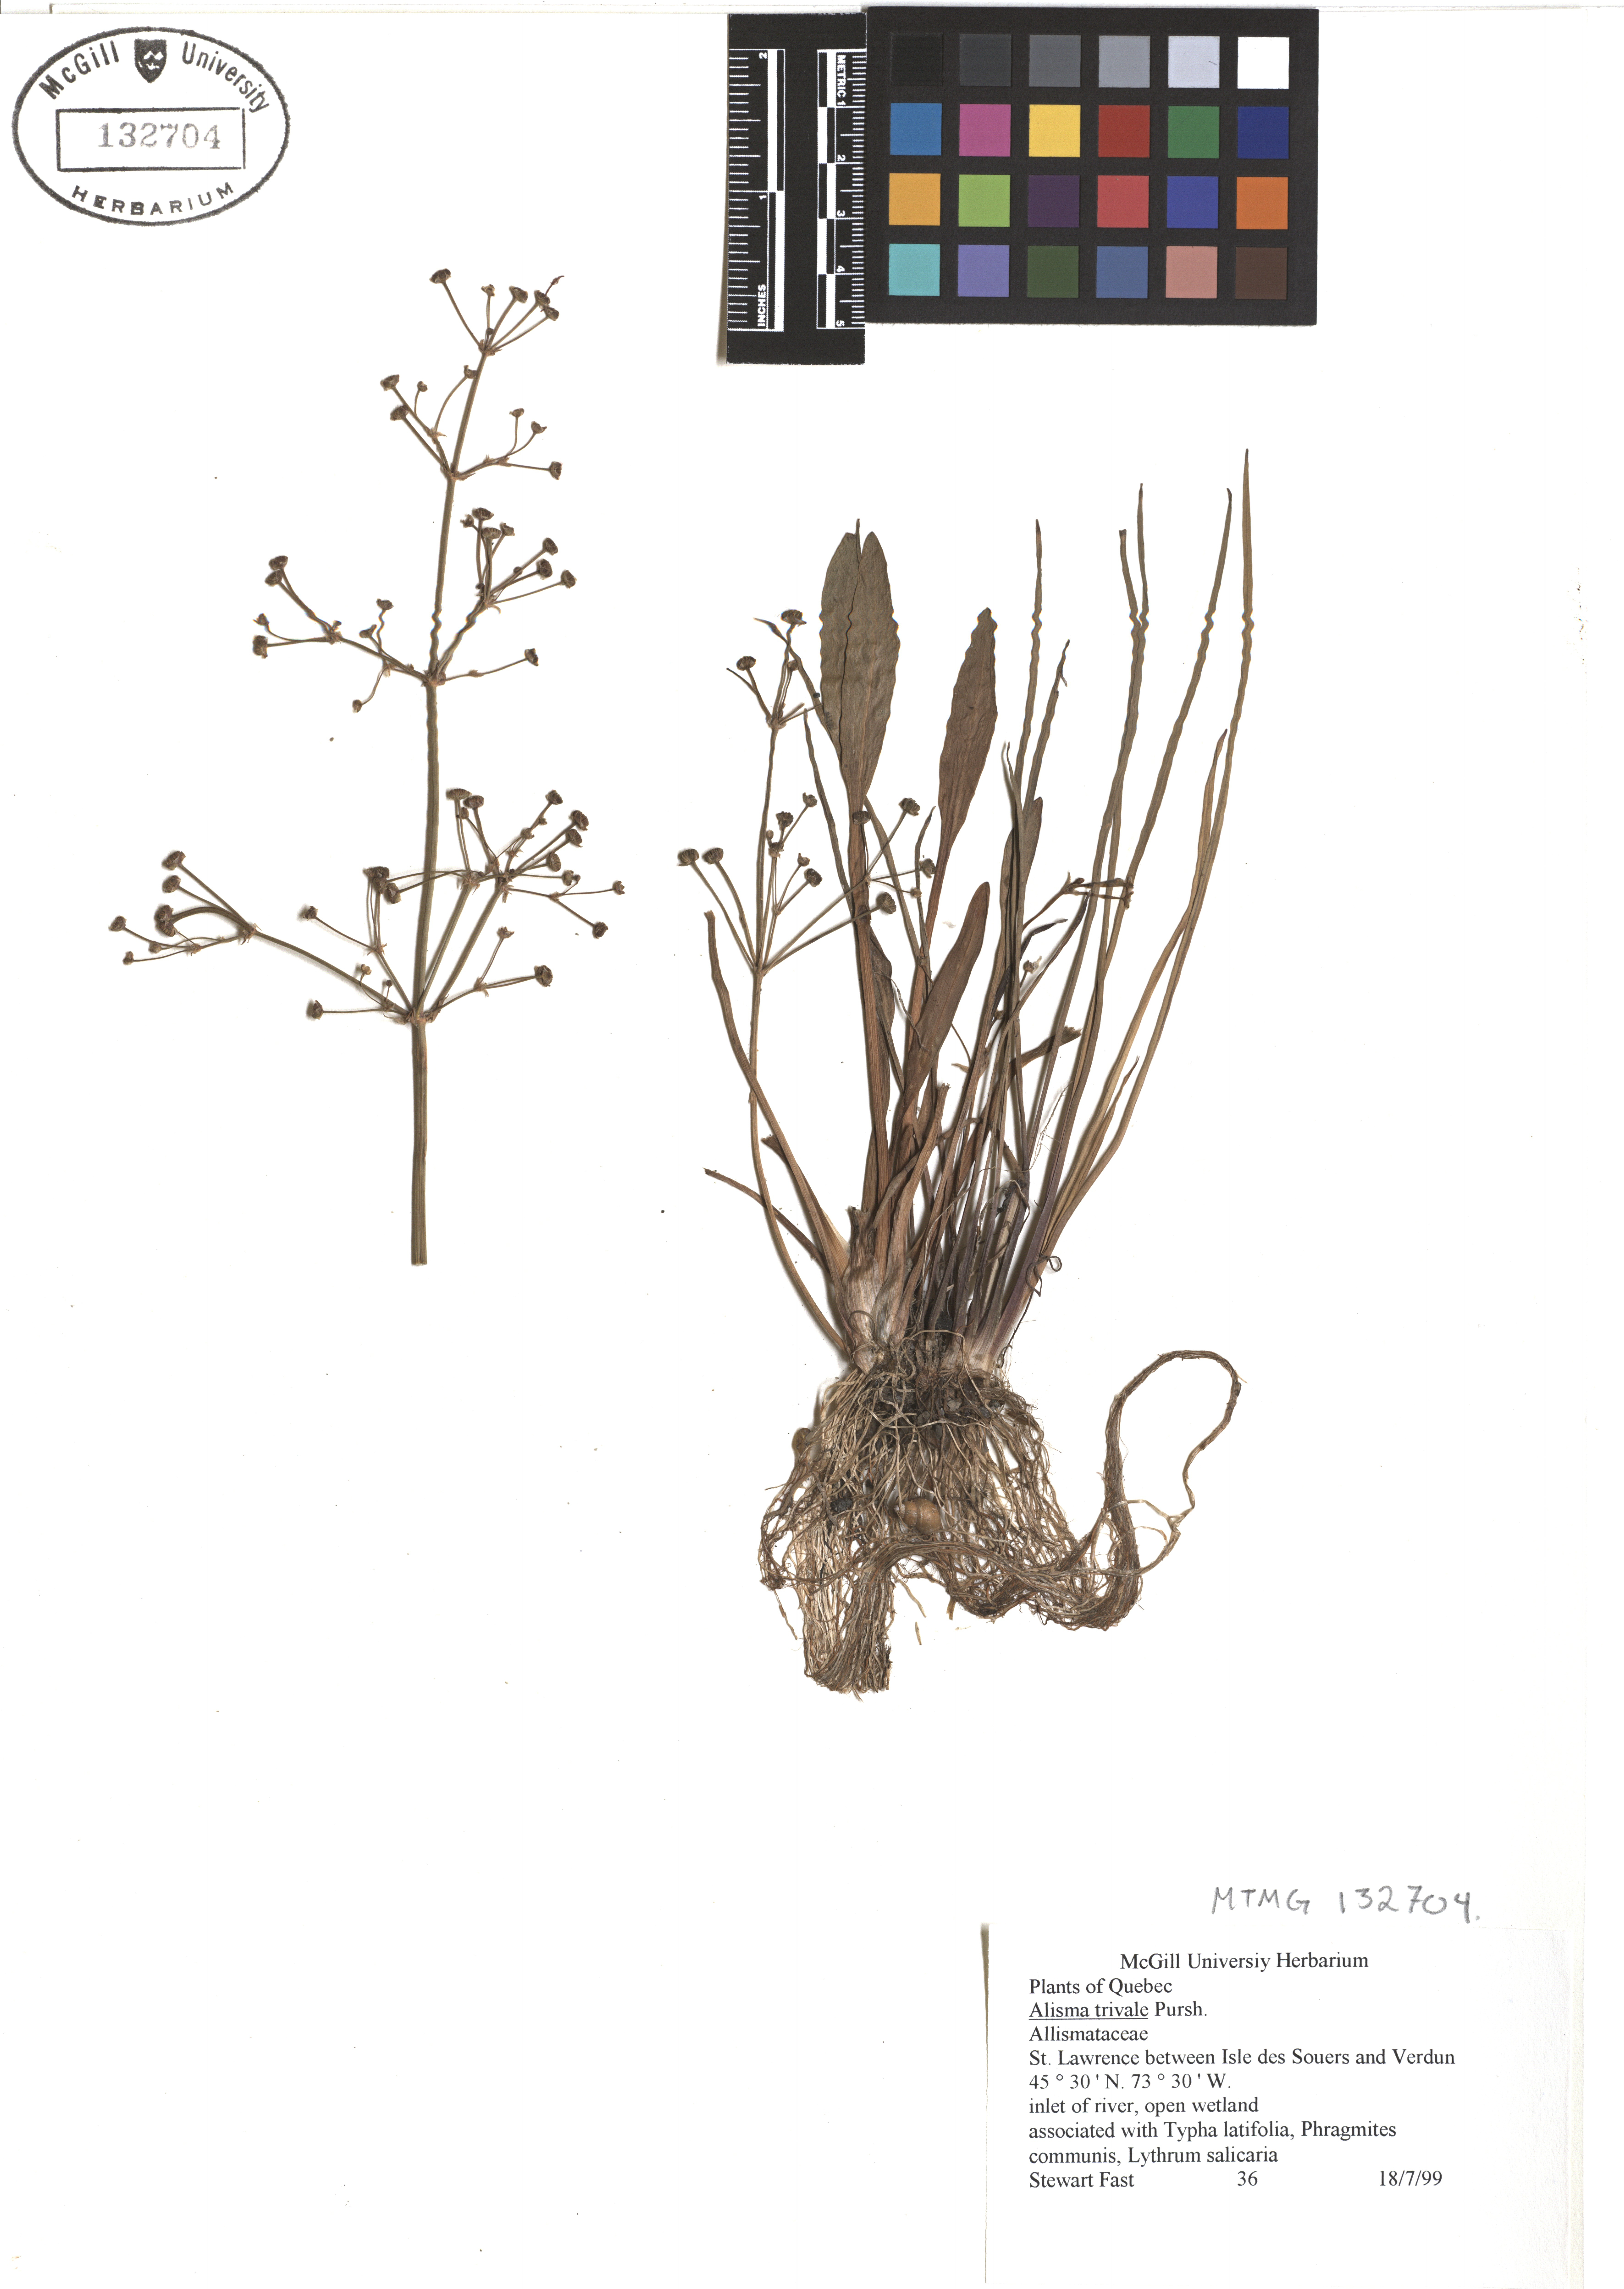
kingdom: Plantae
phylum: Tracheophyta
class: Liliopsida
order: Alismatales
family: Alismataceae
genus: Alisma
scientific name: Alisma triviale
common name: Northern water-plantain
